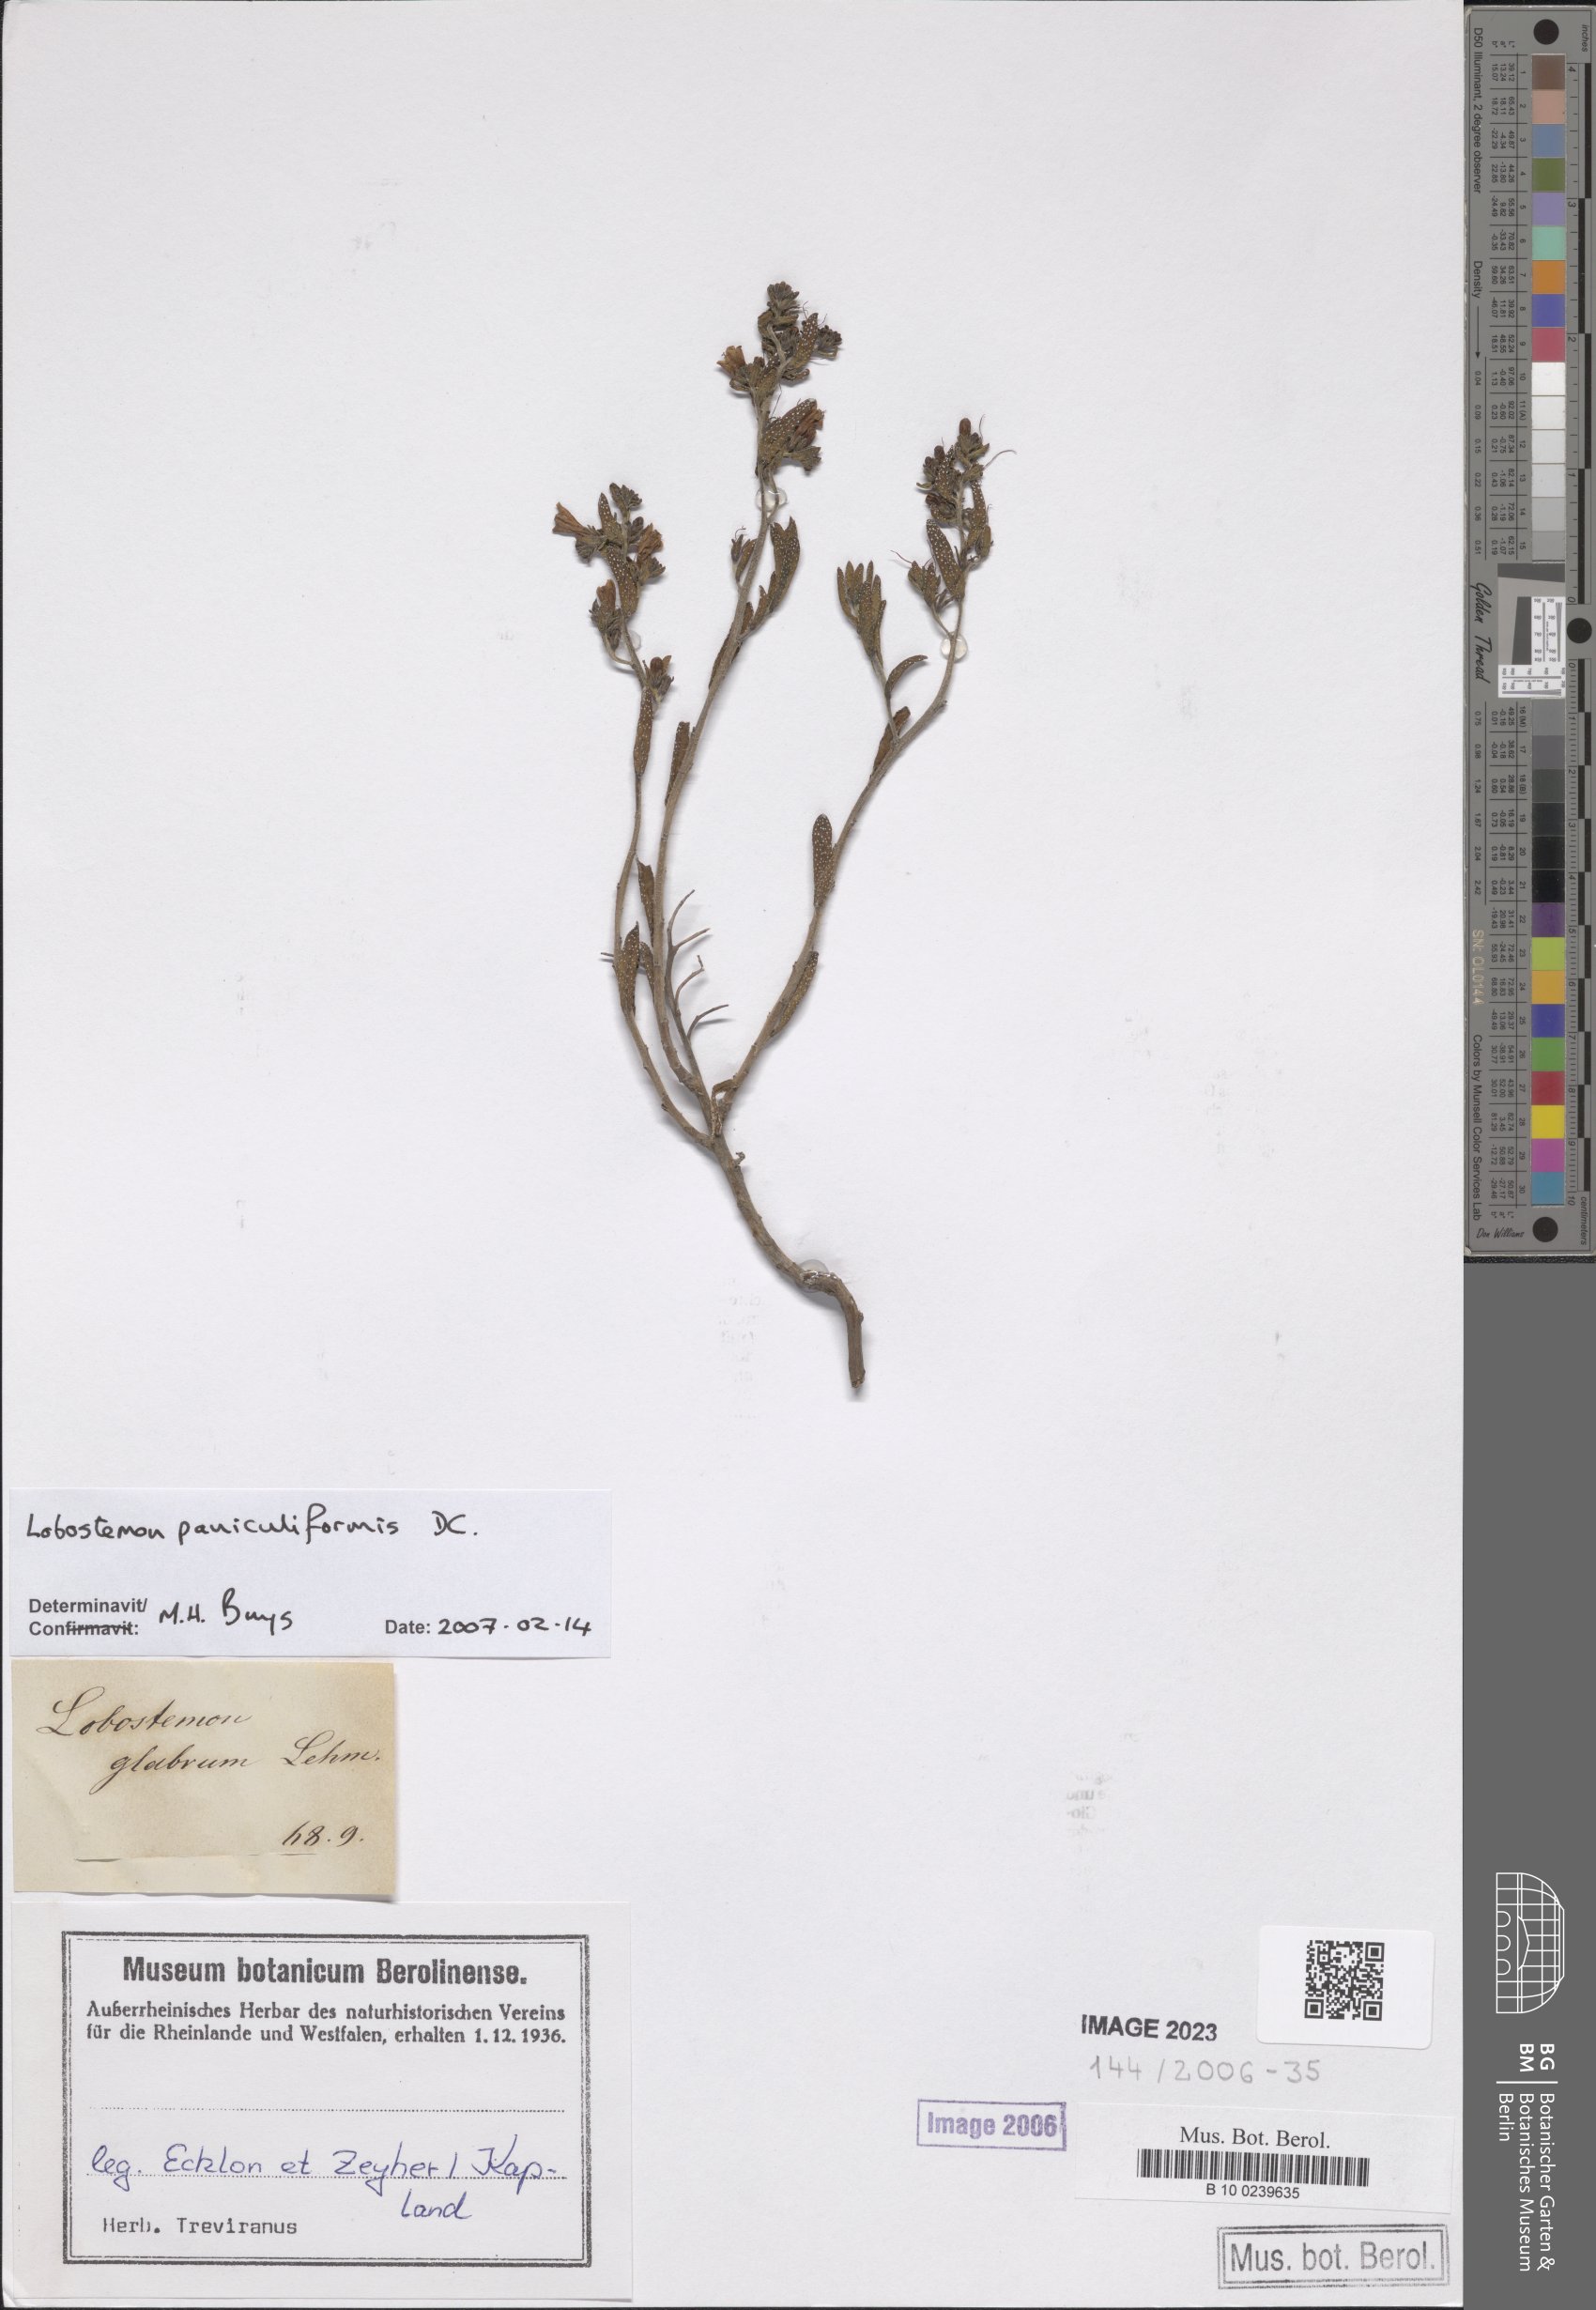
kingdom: Plantae
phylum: Tracheophyta
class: Magnoliopsida
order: Boraginales
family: Boraginaceae
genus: Lobostemon
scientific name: Lobostemon glaber
